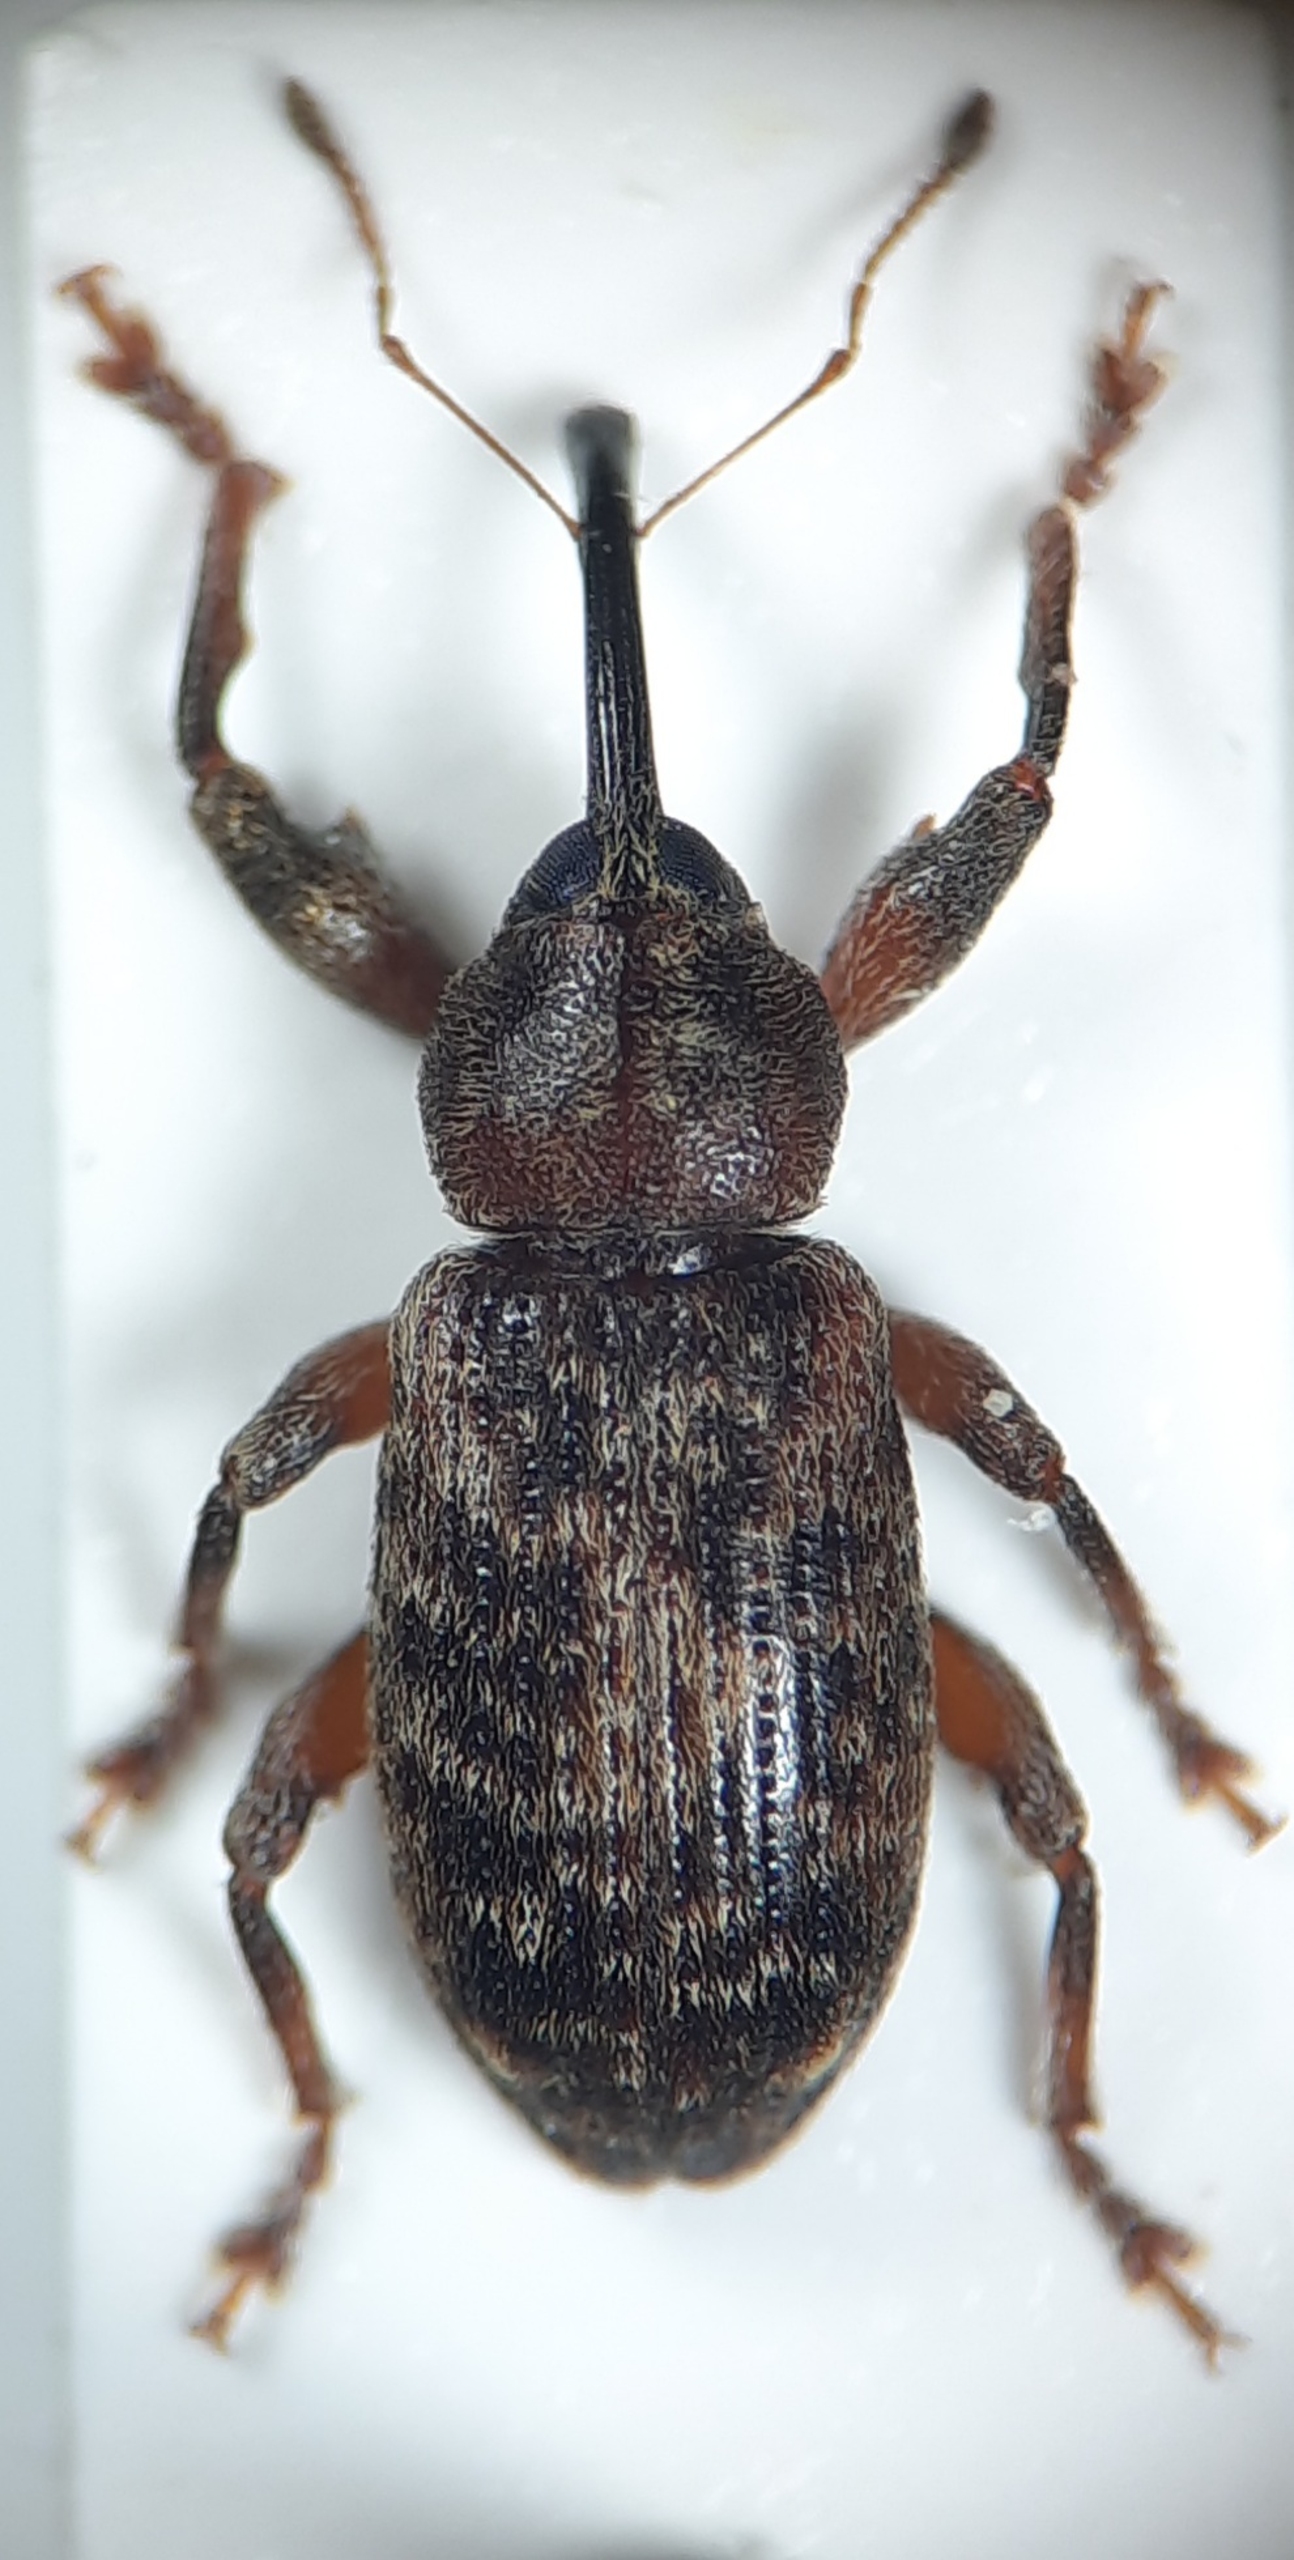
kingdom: Animalia
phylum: Arthropoda
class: Insecta
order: Coleoptera
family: Curculionidae
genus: Dorytomus
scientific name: Dorytomus tremulae
